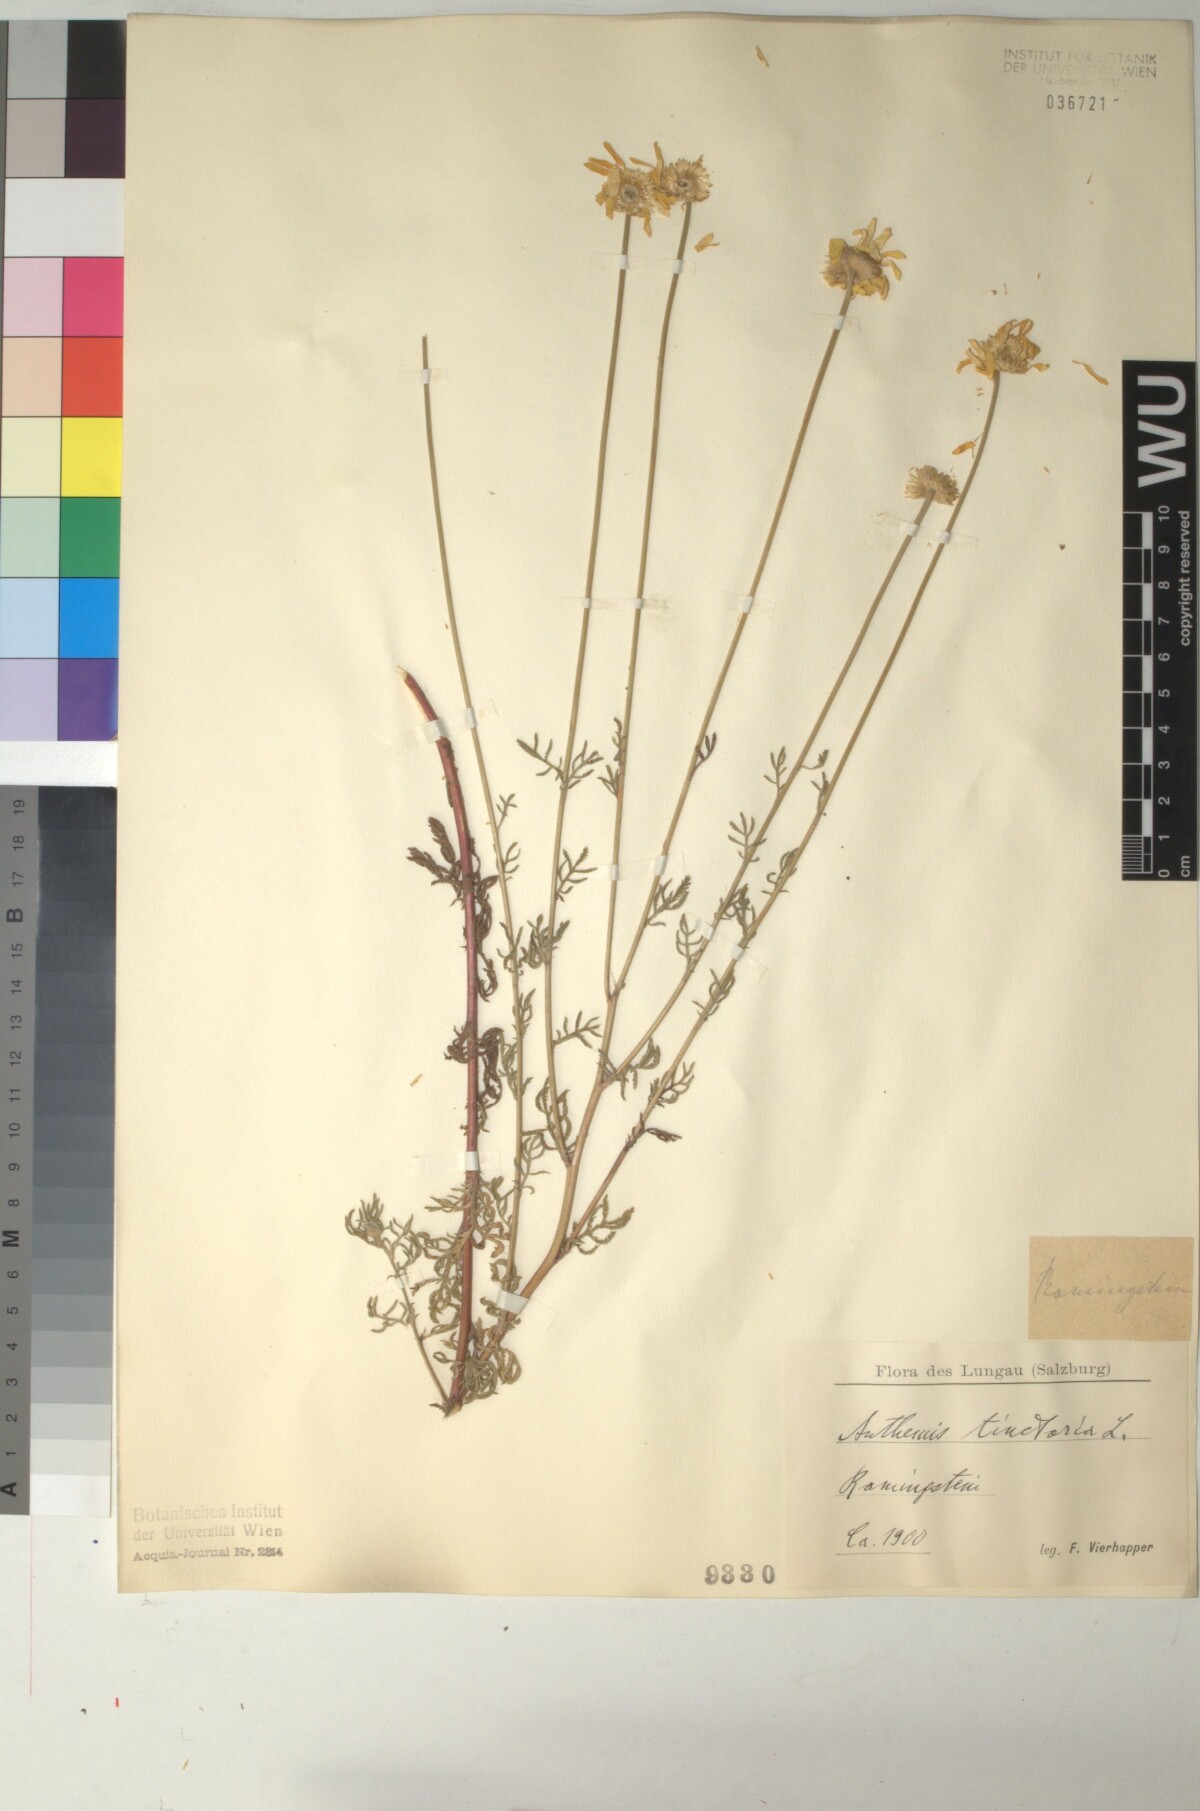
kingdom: Plantae
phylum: Tracheophyta
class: Magnoliopsida
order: Asterales
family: Asteraceae
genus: Cota
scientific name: Cota tinctoria
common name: Golden chamomile
